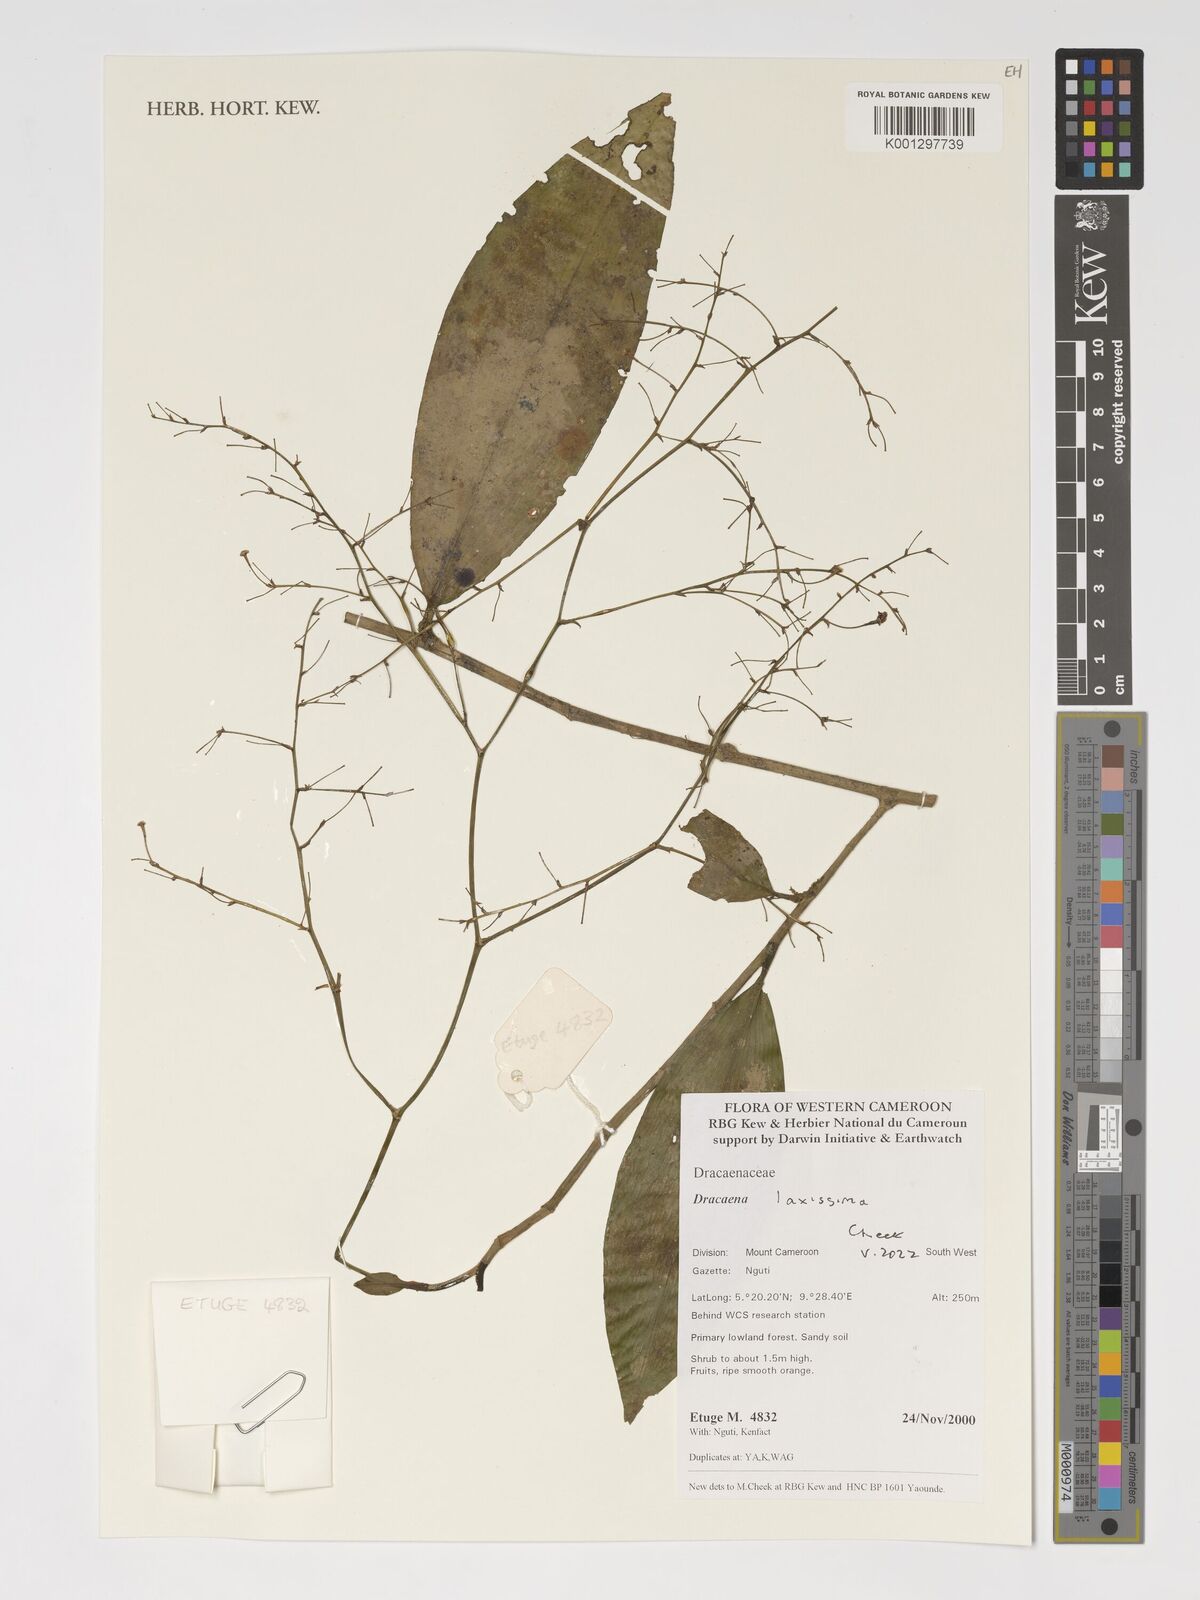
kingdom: Plantae
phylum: Tracheophyta
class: Liliopsida
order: Asparagales
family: Asparagaceae
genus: Dracaena
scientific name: Dracaena laxissima
